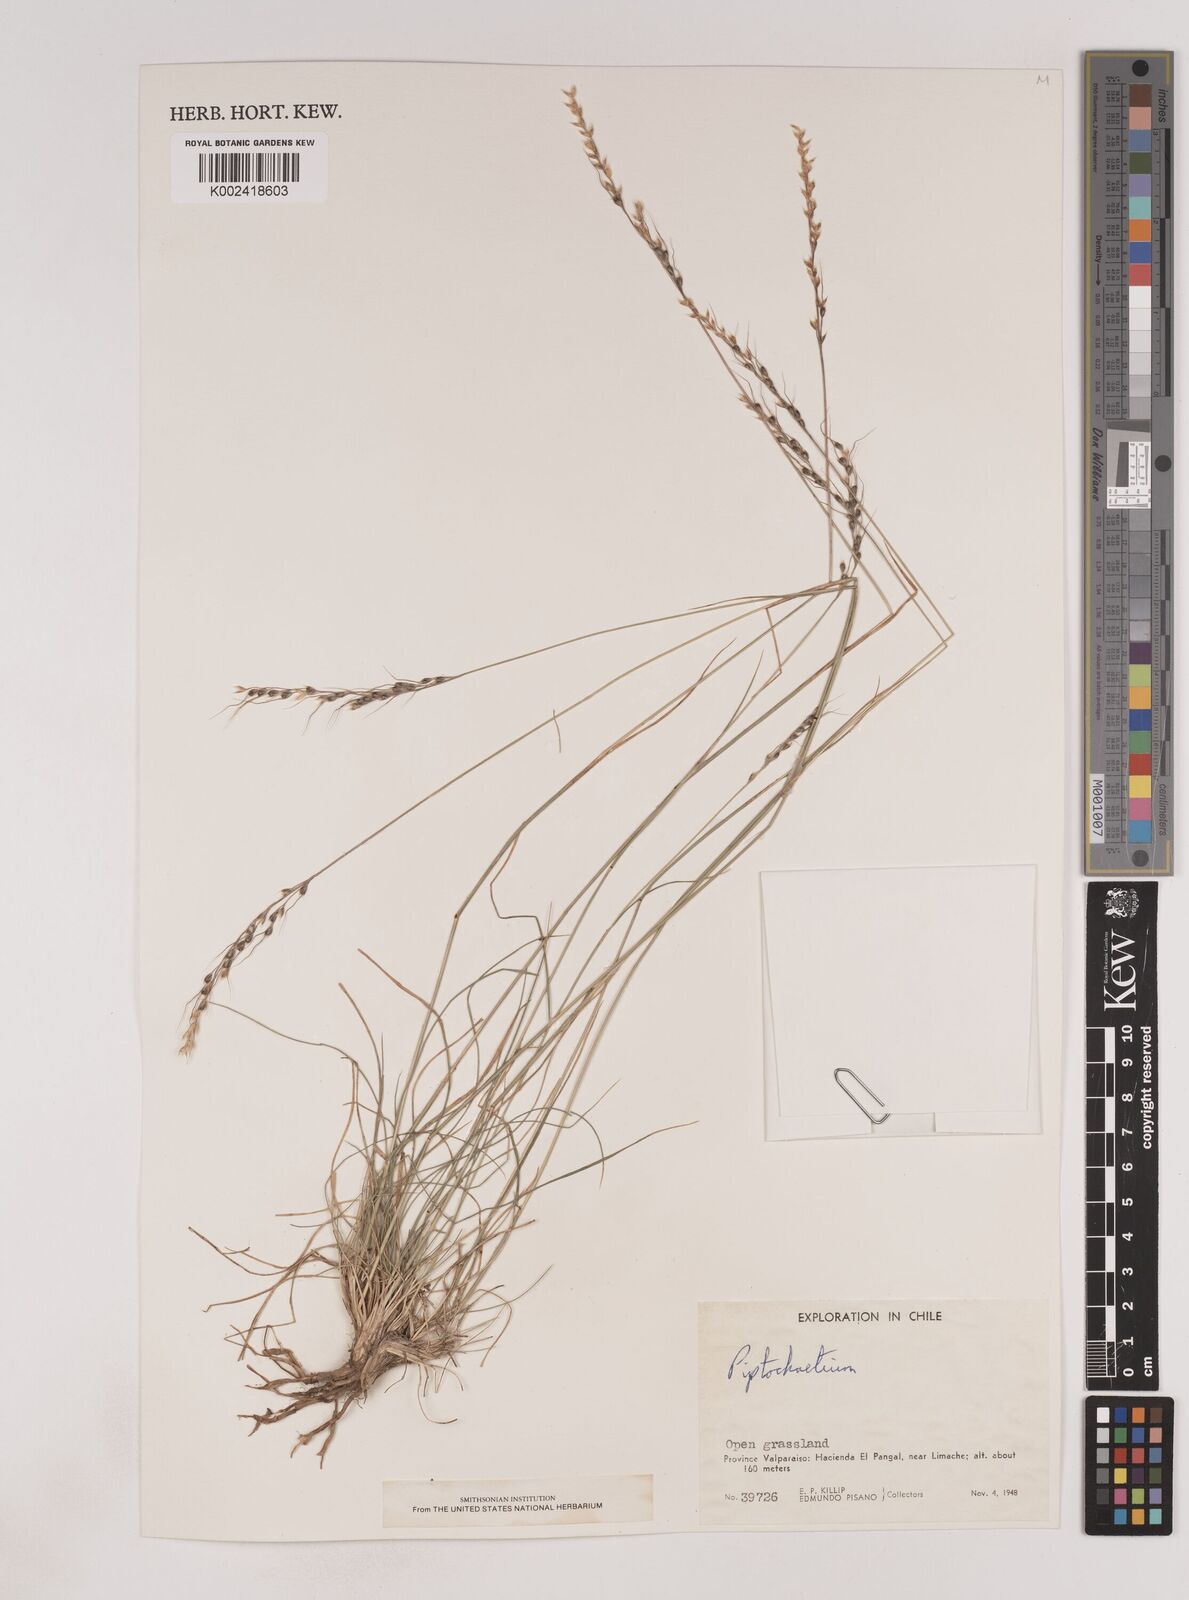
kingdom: Plantae
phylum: Tracheophyta
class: Liliopsida
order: Poales
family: Poaceae
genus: Piptochaetium
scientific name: Piptochaetium
